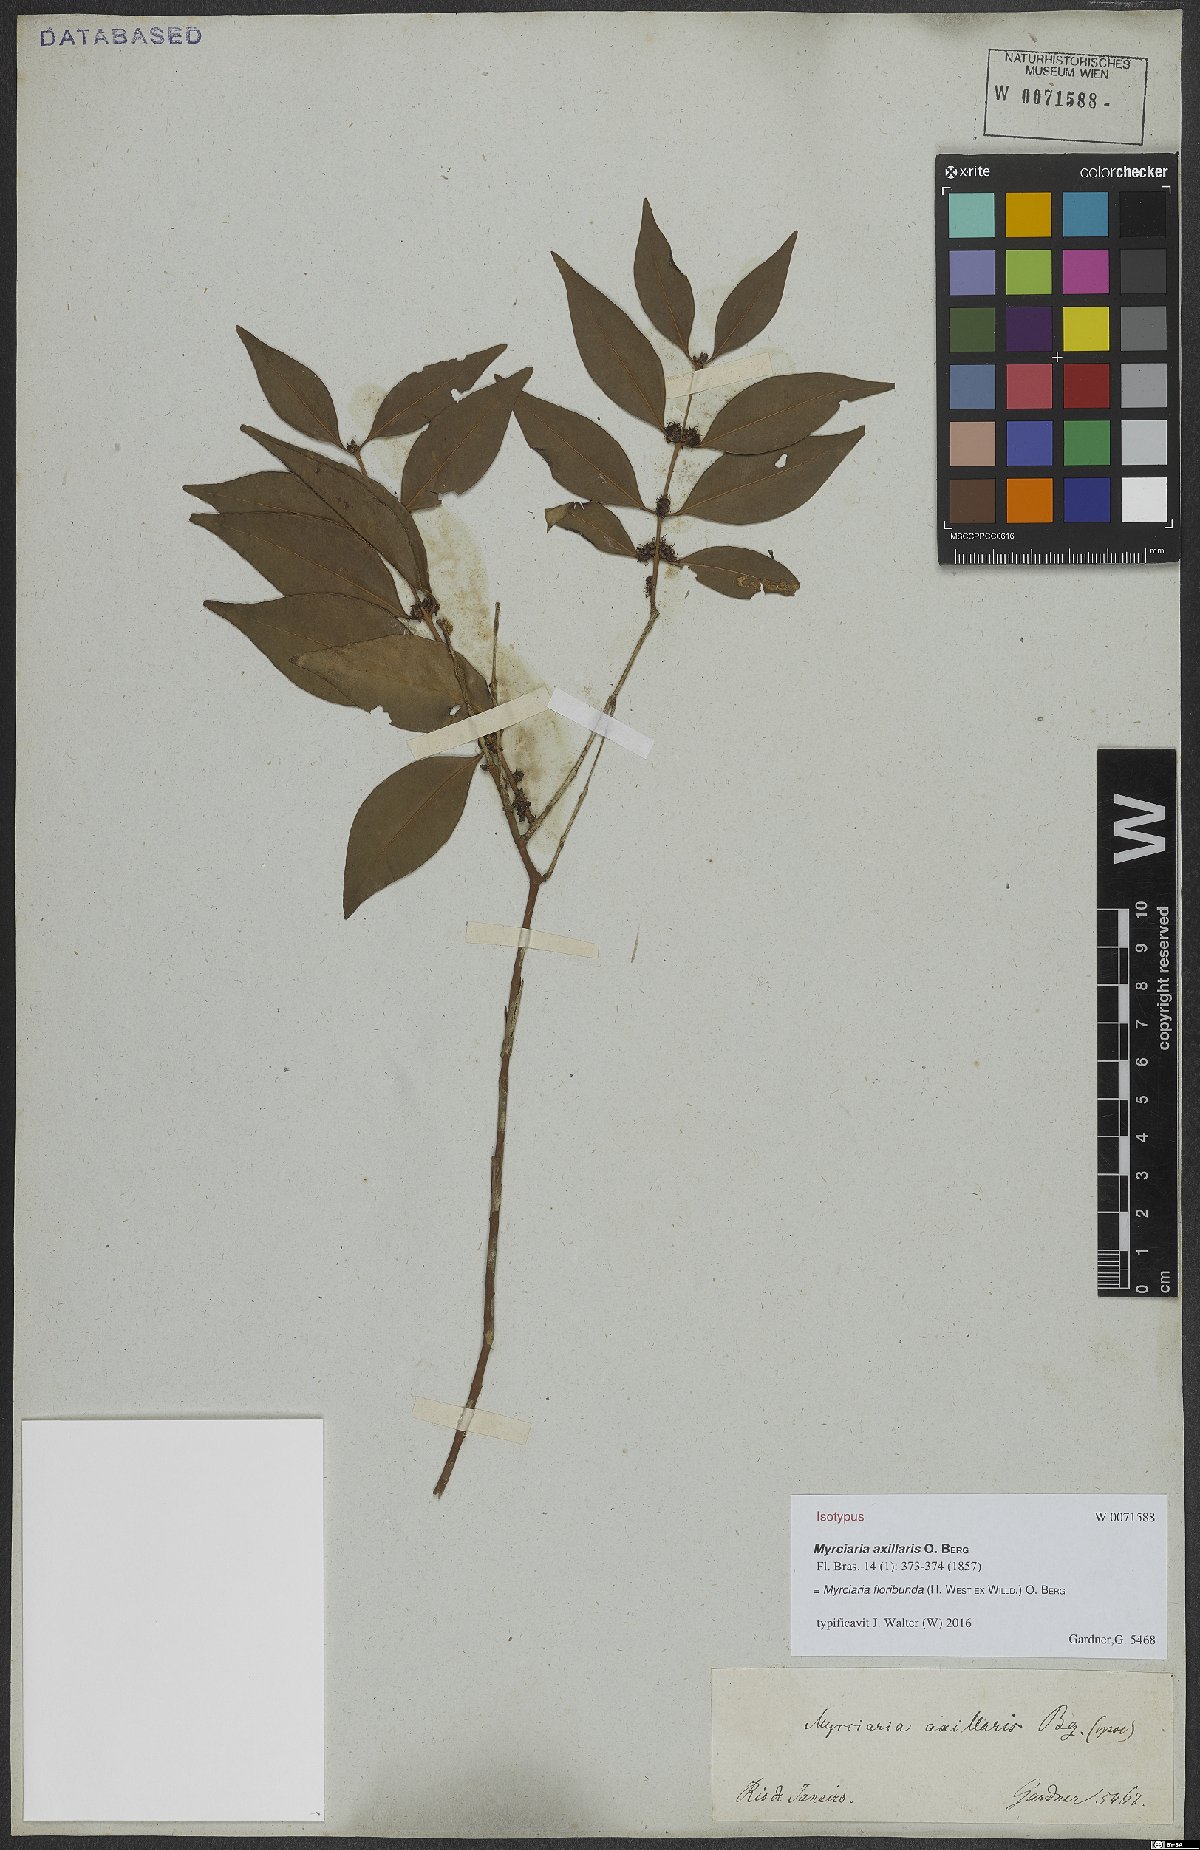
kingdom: Plantae
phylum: Tracheophyta
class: Magnoliopsida
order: Myrtales
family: Myrtaceae
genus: Myrciaria
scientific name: Myrciaria floribunda
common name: Guavaberry
